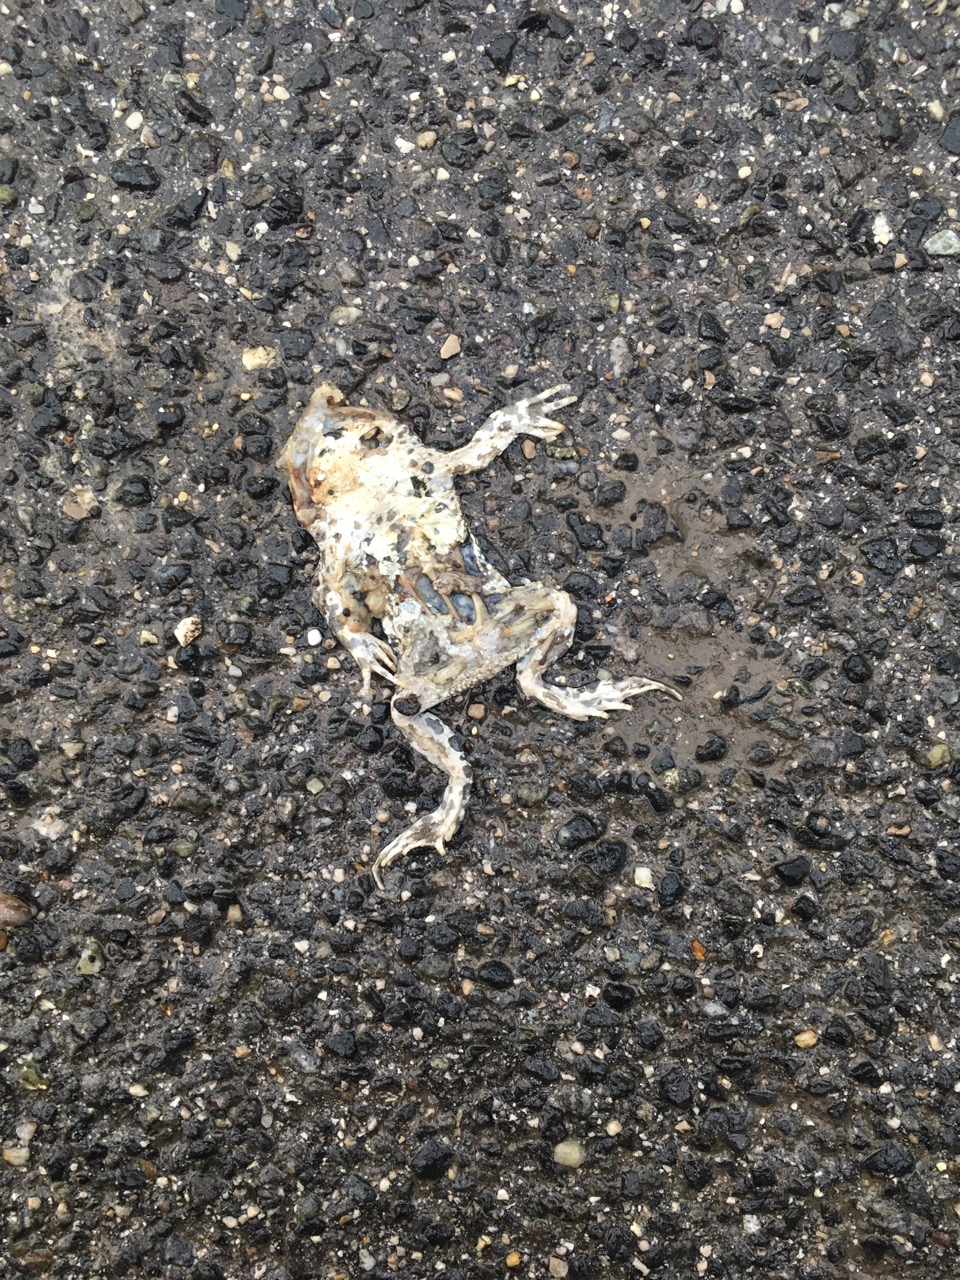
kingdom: Animalia
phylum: Chordata
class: Amphibia
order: Anura
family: Bufonidae
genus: Bufotes
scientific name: Bufotes viridis
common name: European green toad
